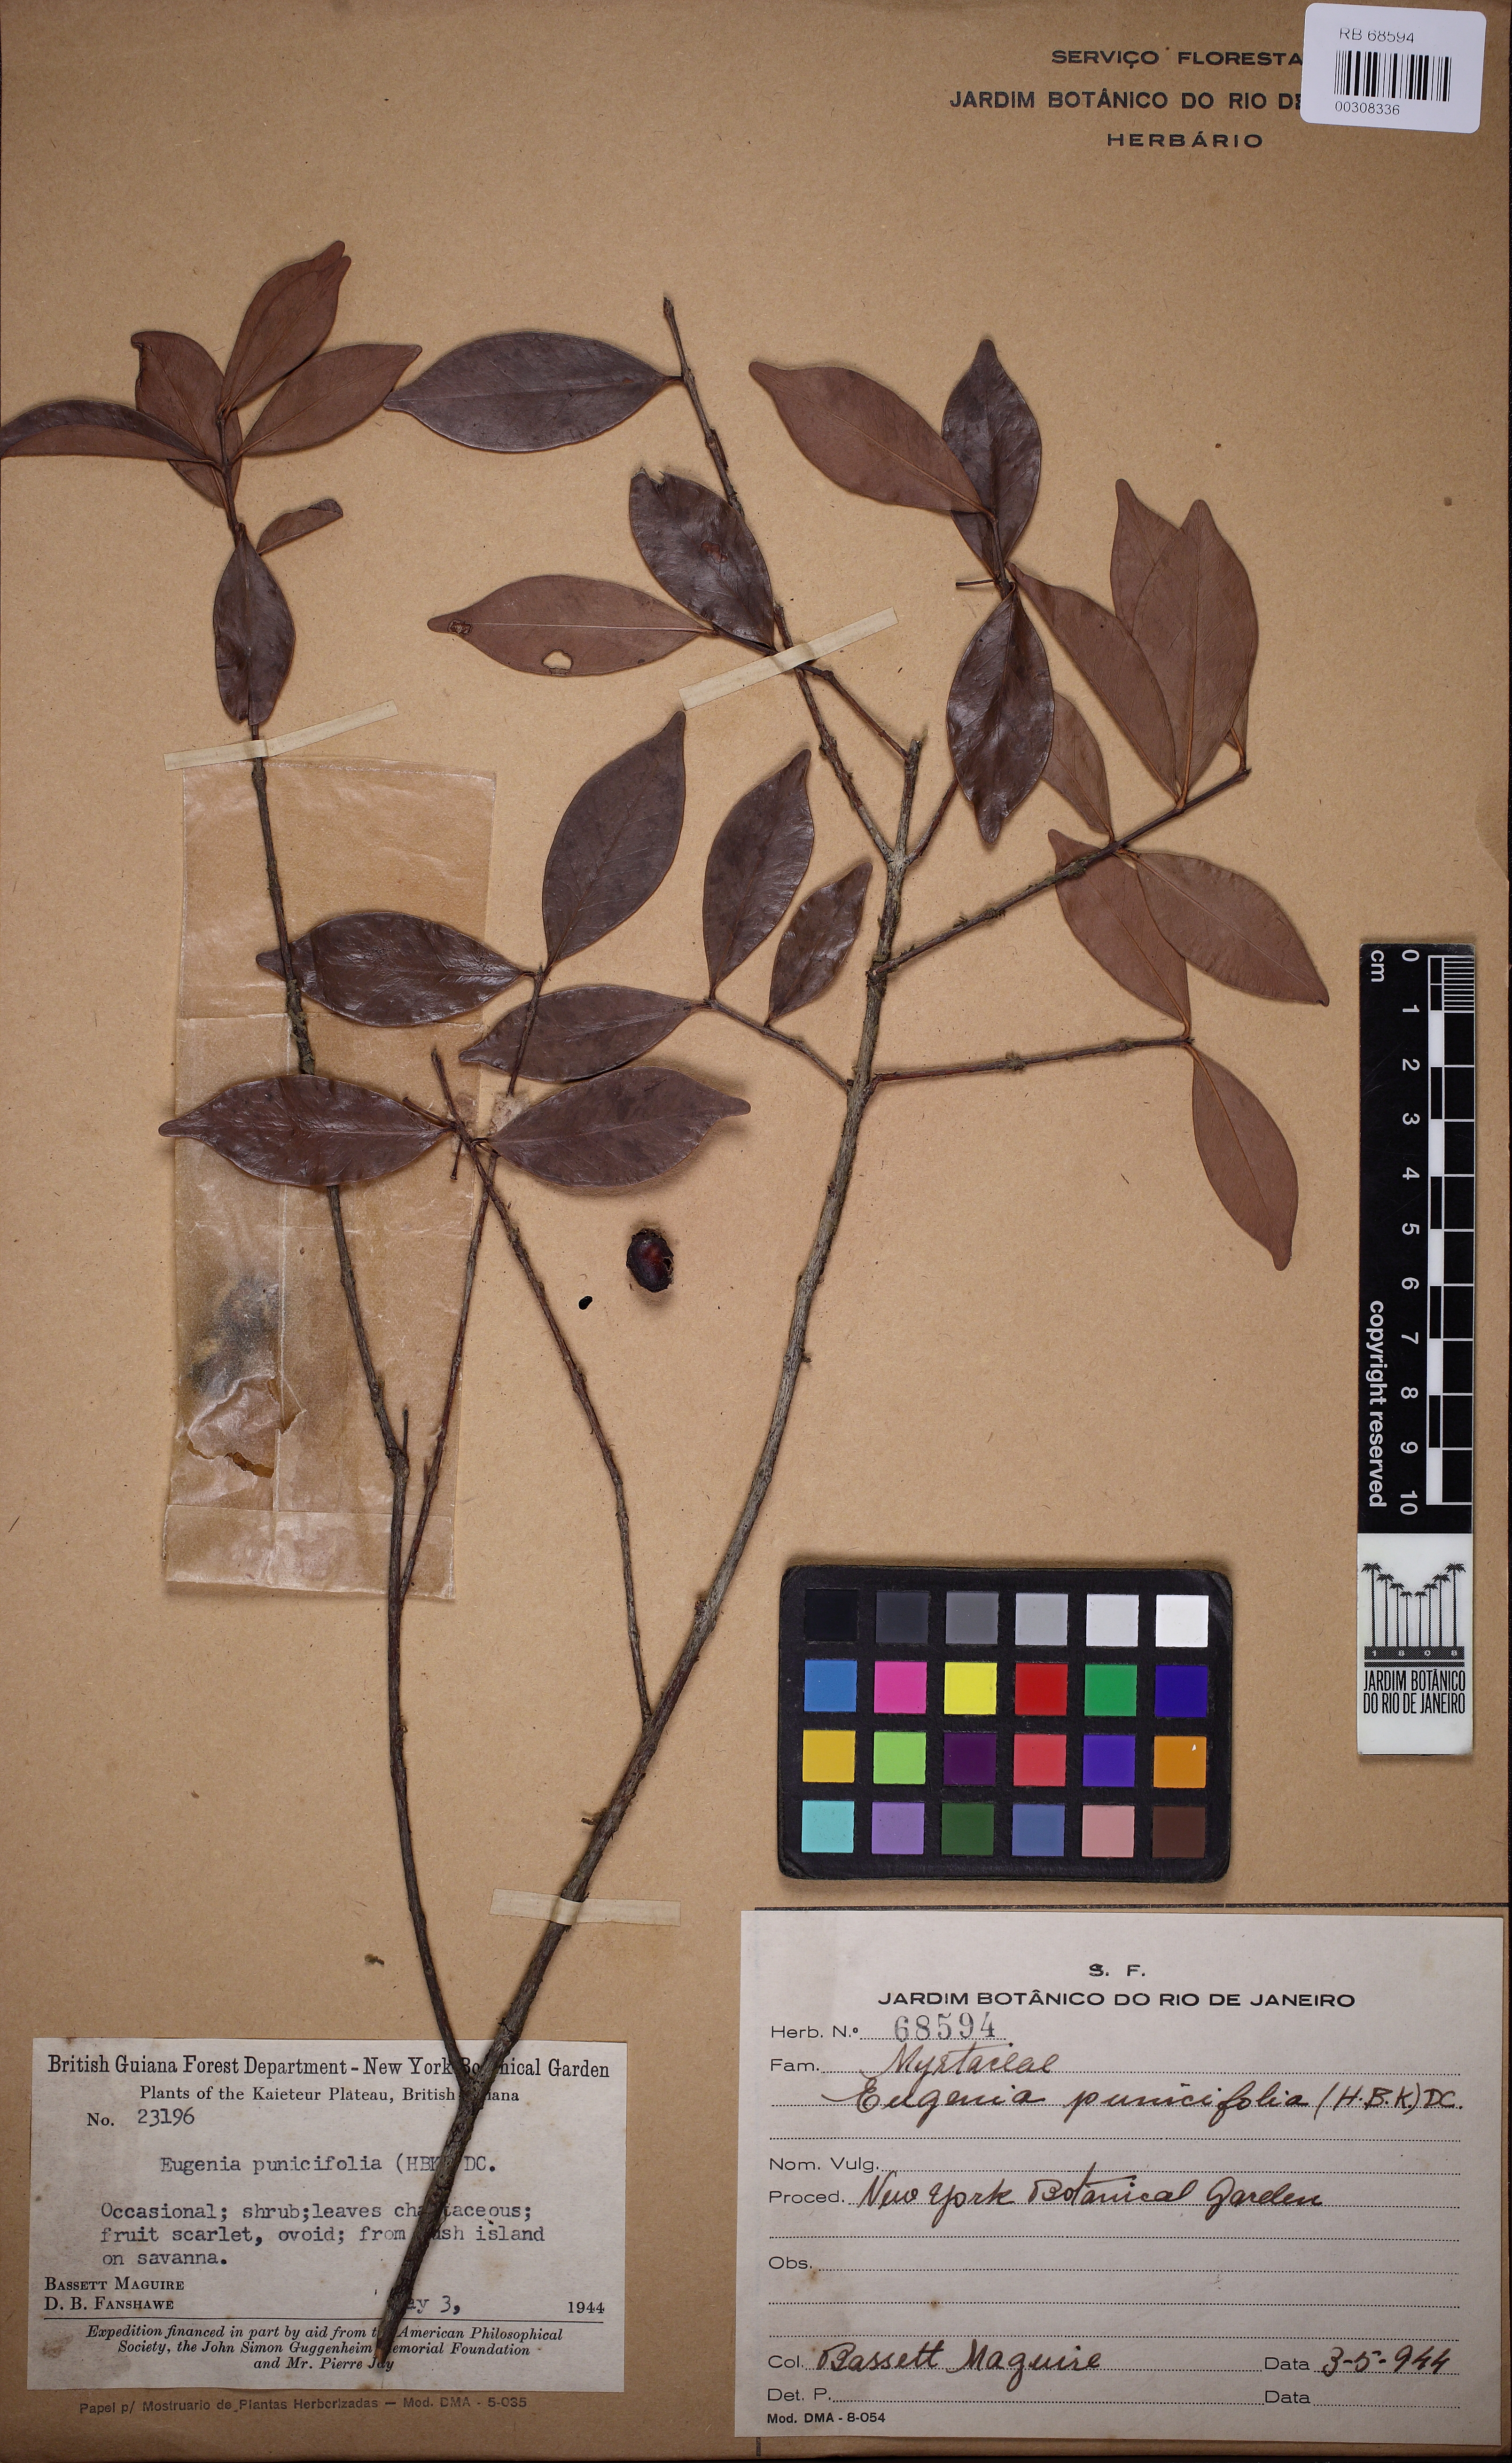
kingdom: Plantae
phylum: Tracheophyta
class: Magnoliopsida
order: Myrtales
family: Myrtaceae
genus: Eugenia
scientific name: Eugenia punicifolia
